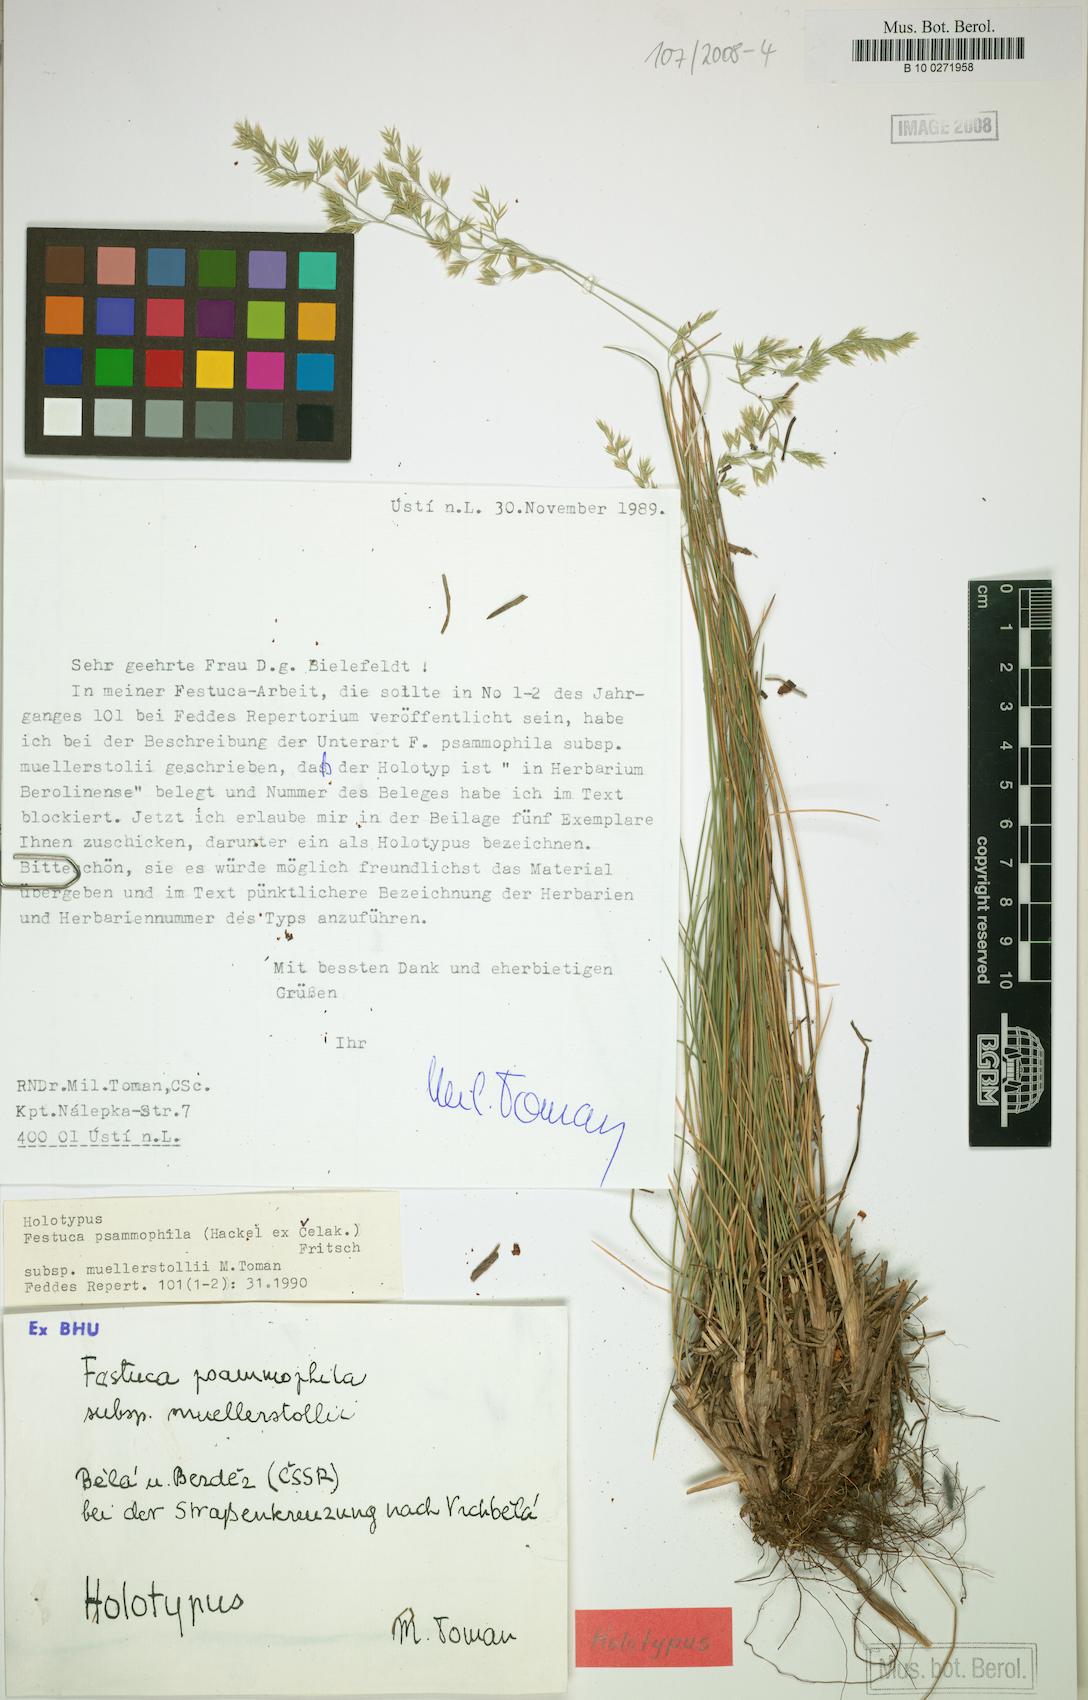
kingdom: Plantae
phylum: Tracheophyta
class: Liliopsida
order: Poales
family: Poaceae
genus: Festuca
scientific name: Festuca belensis
